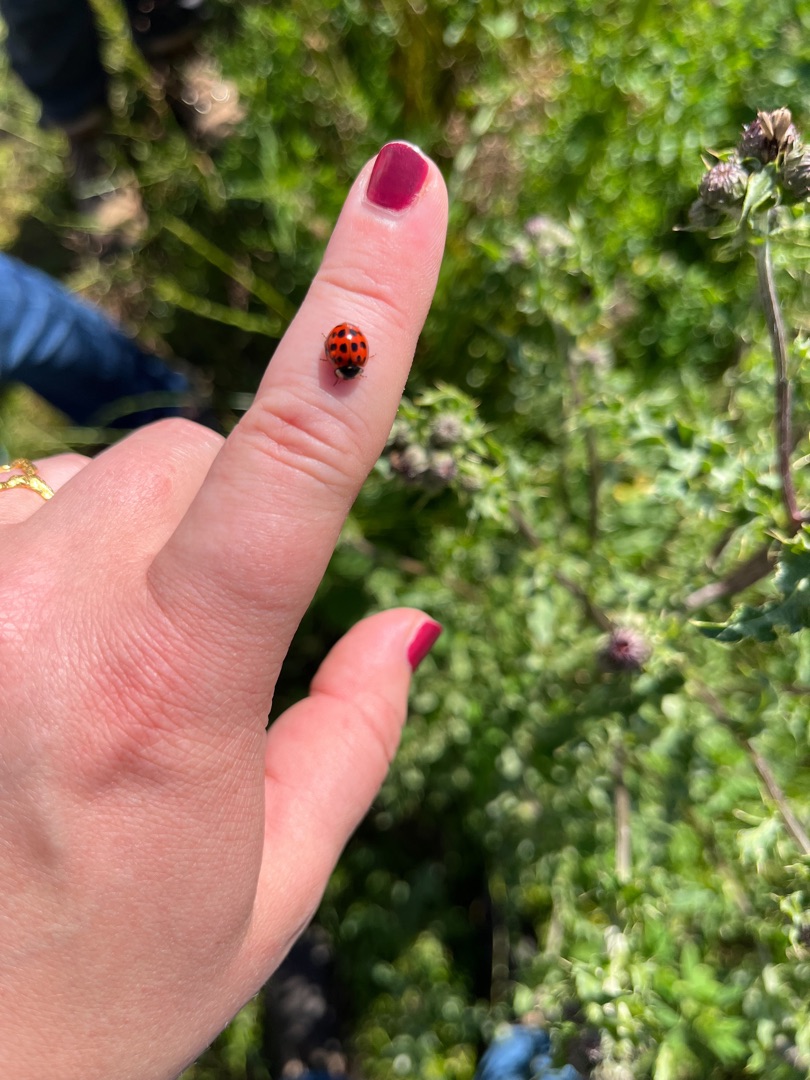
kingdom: Animalia
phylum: Arthropoda
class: Insecta
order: Coleoptera
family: Coccinellidae
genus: Harmonia
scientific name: Harmonia axyridis
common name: Harlekinmariehøne
